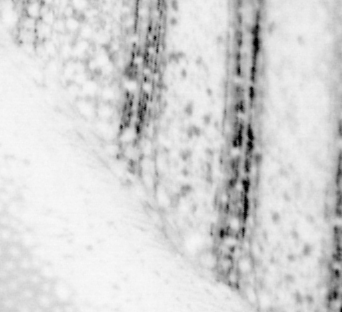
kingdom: Animalia
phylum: Chordata
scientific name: Chordata
